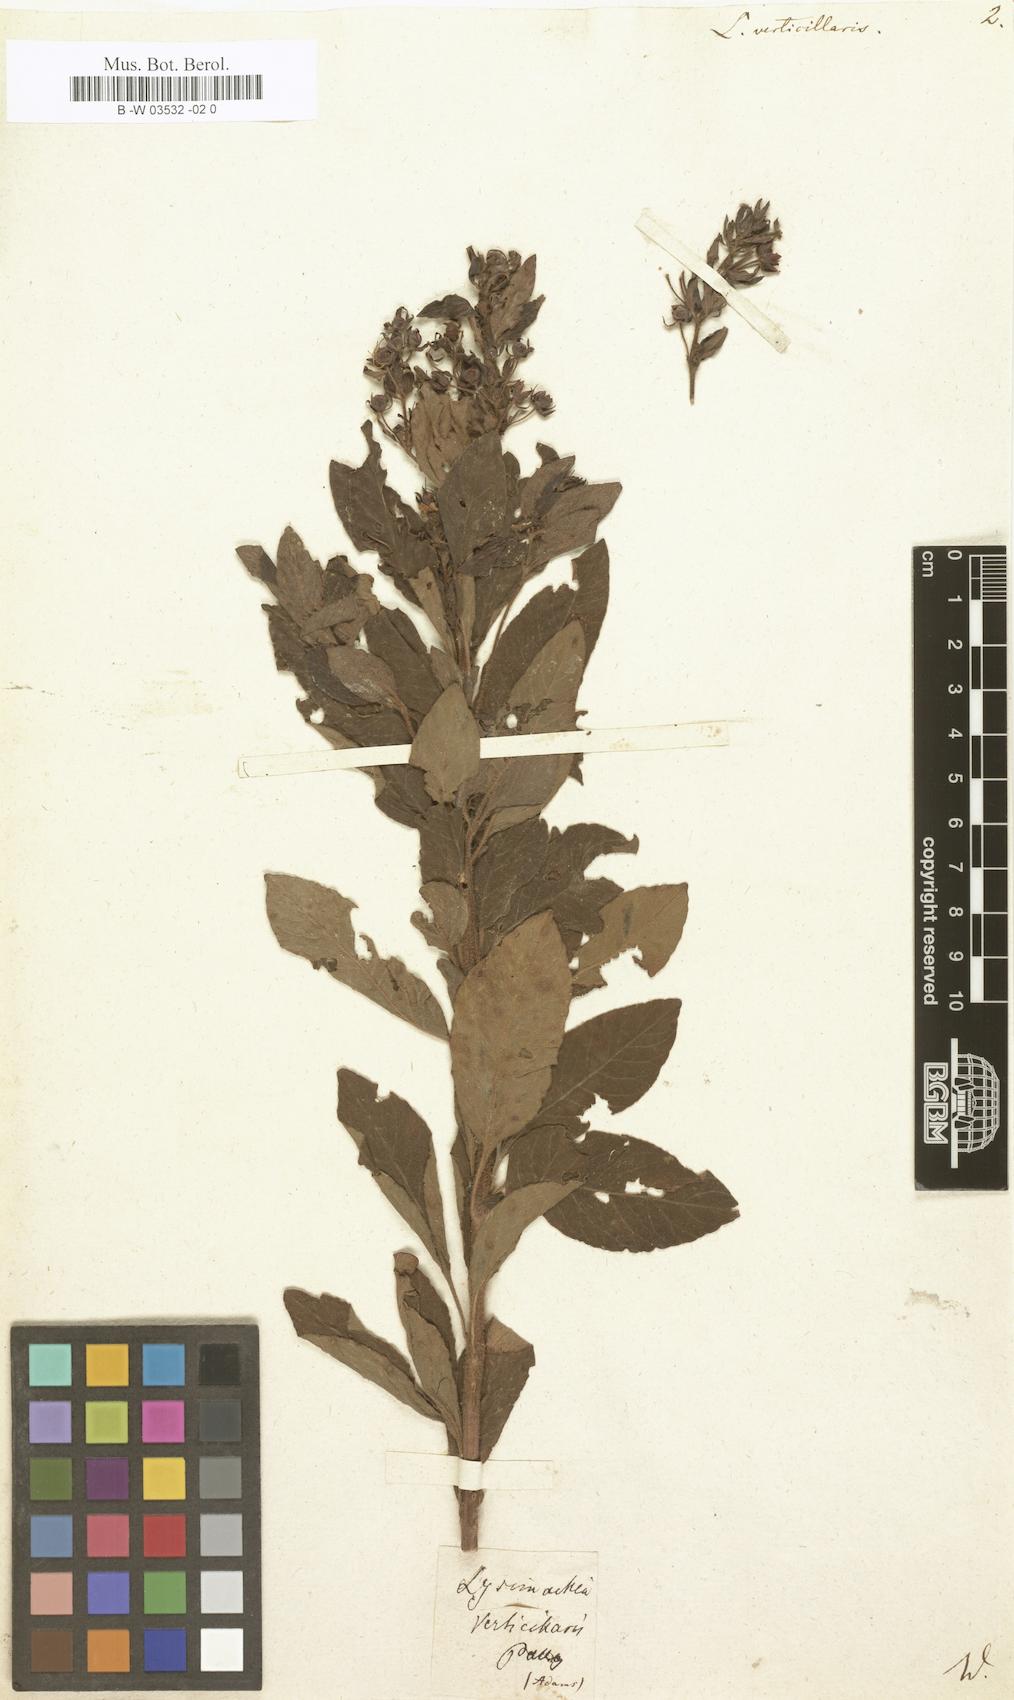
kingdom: Plantae
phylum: Tracheophyta
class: Magnoliopsida
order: Ericales
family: Primulaceae
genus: Lysimachia
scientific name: Lysimachia verticillaris
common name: Yellow loosestrife
